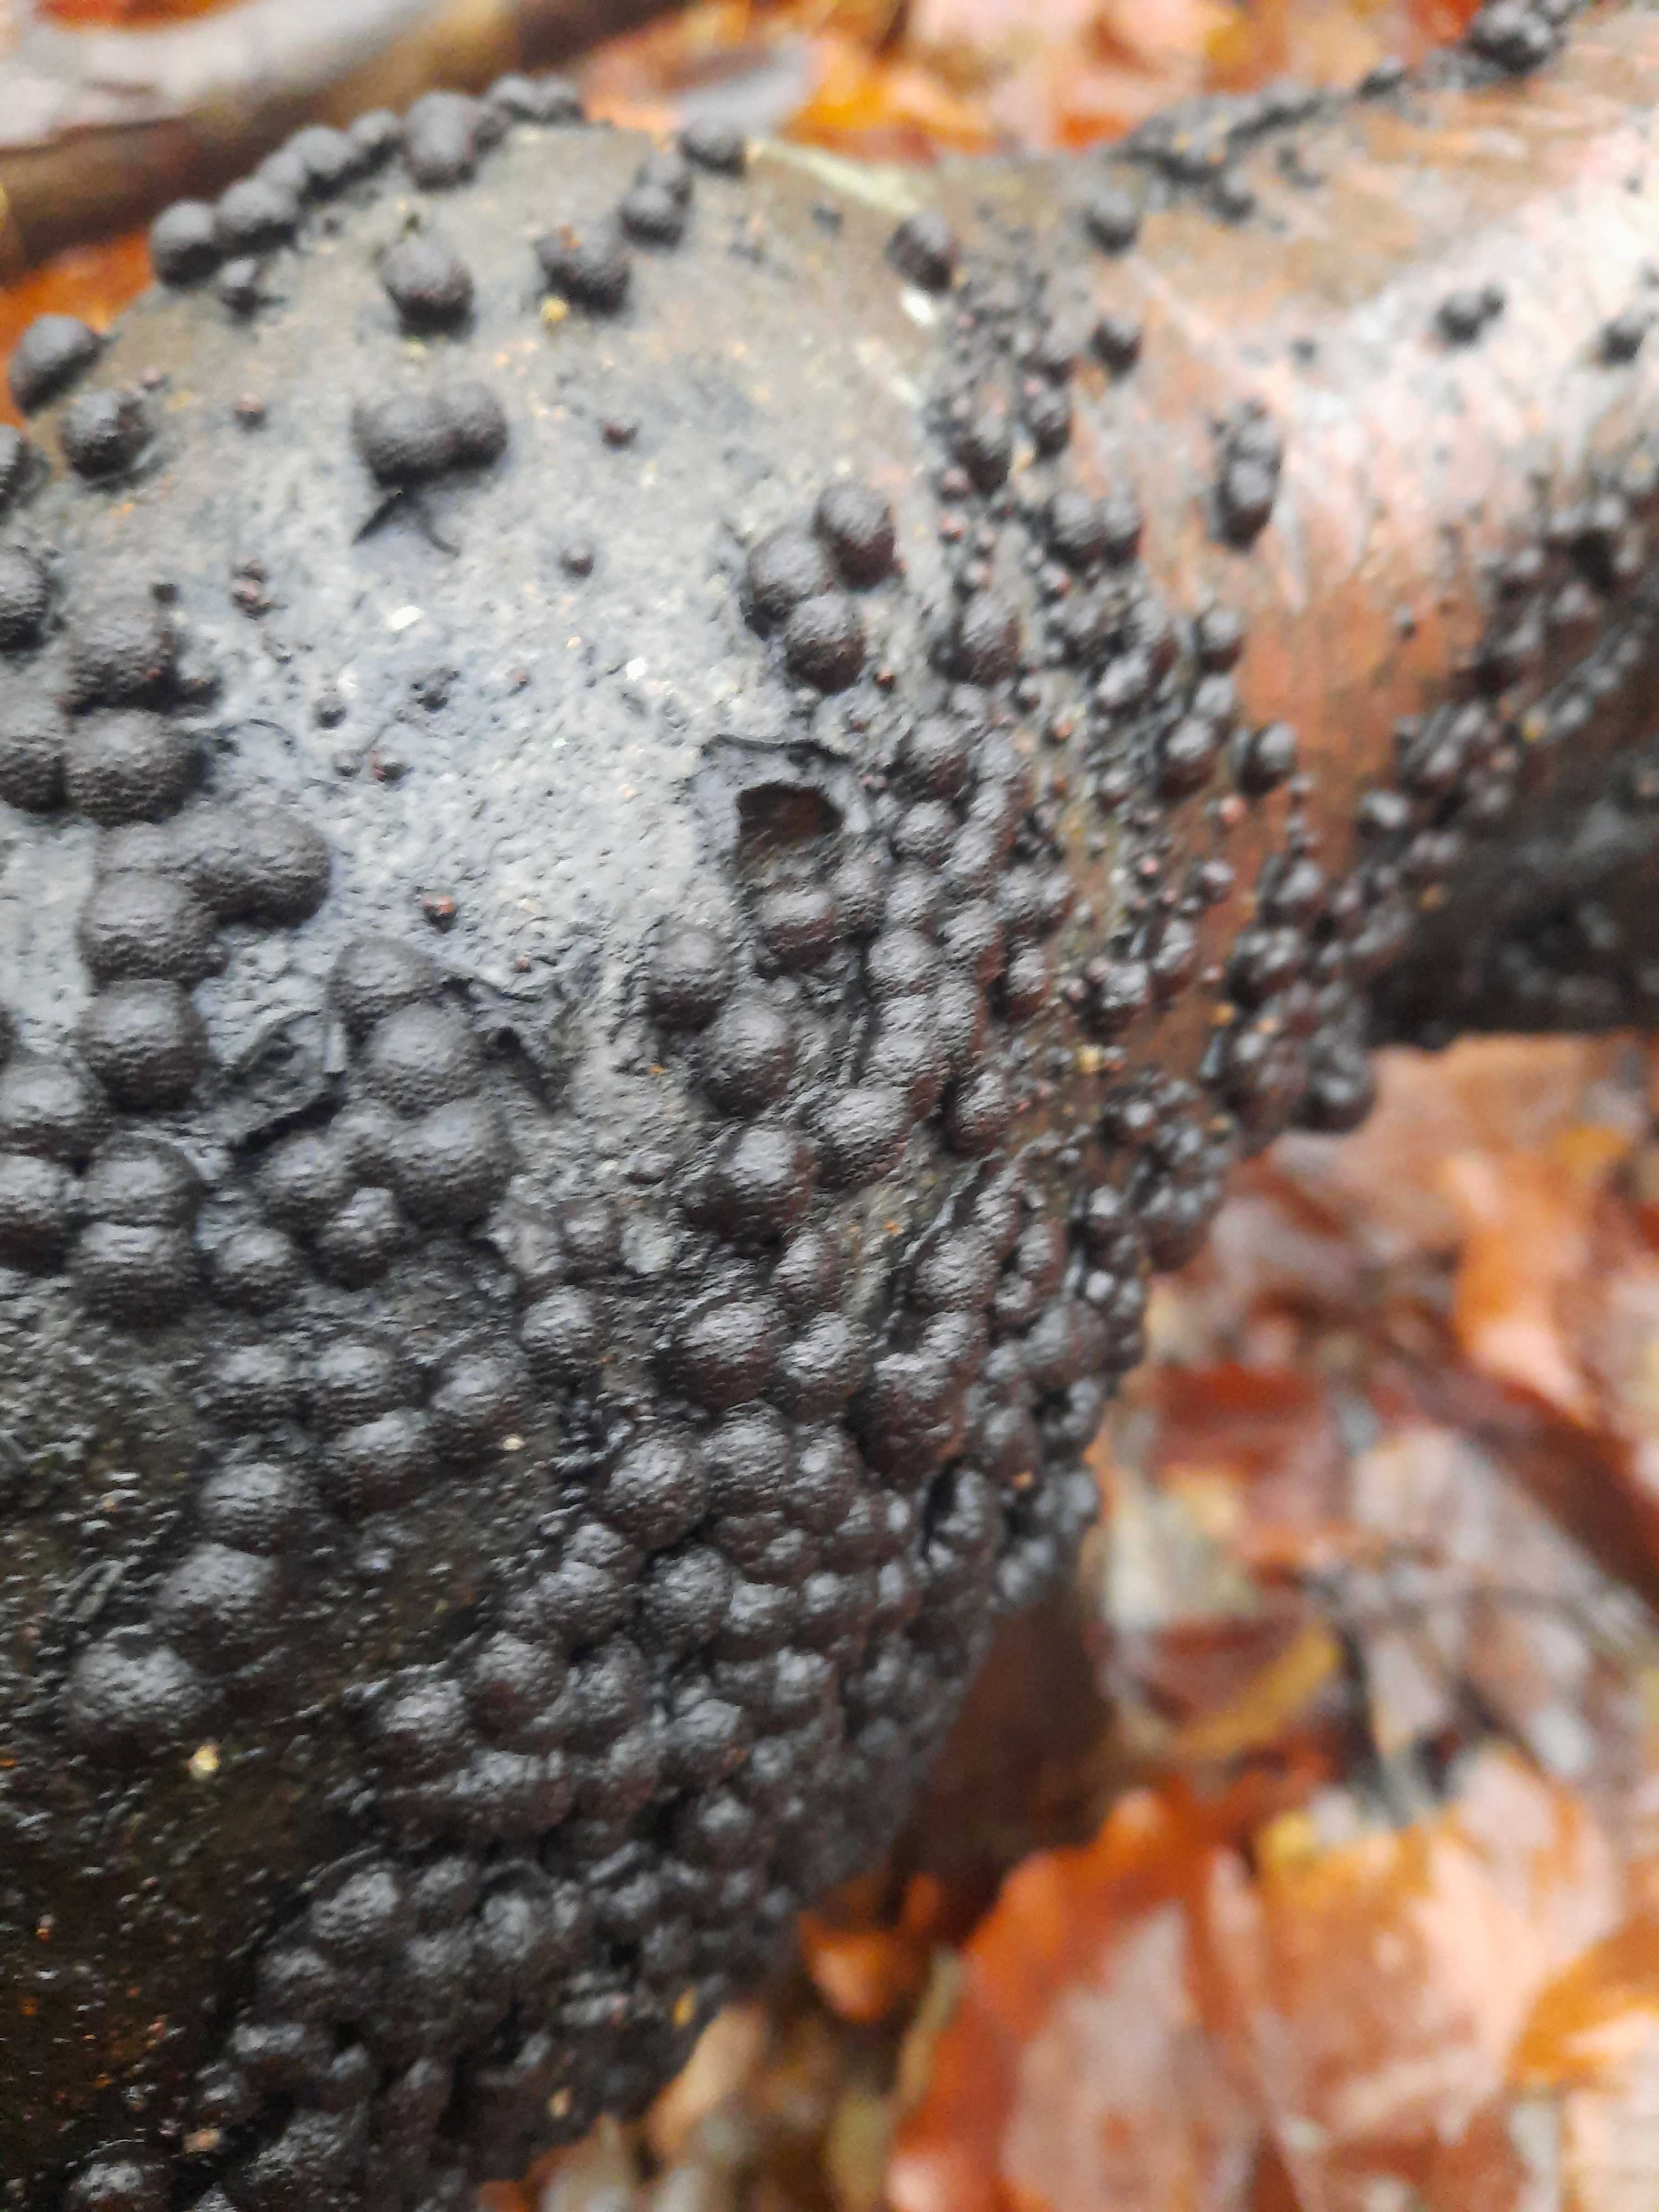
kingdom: Fungi
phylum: Ascomycota
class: Sordariomycetes
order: Xylariales
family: Hypoxylaceae
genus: Hypoxylon
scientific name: Hypoxylon fragiforme
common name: kuljordbær
